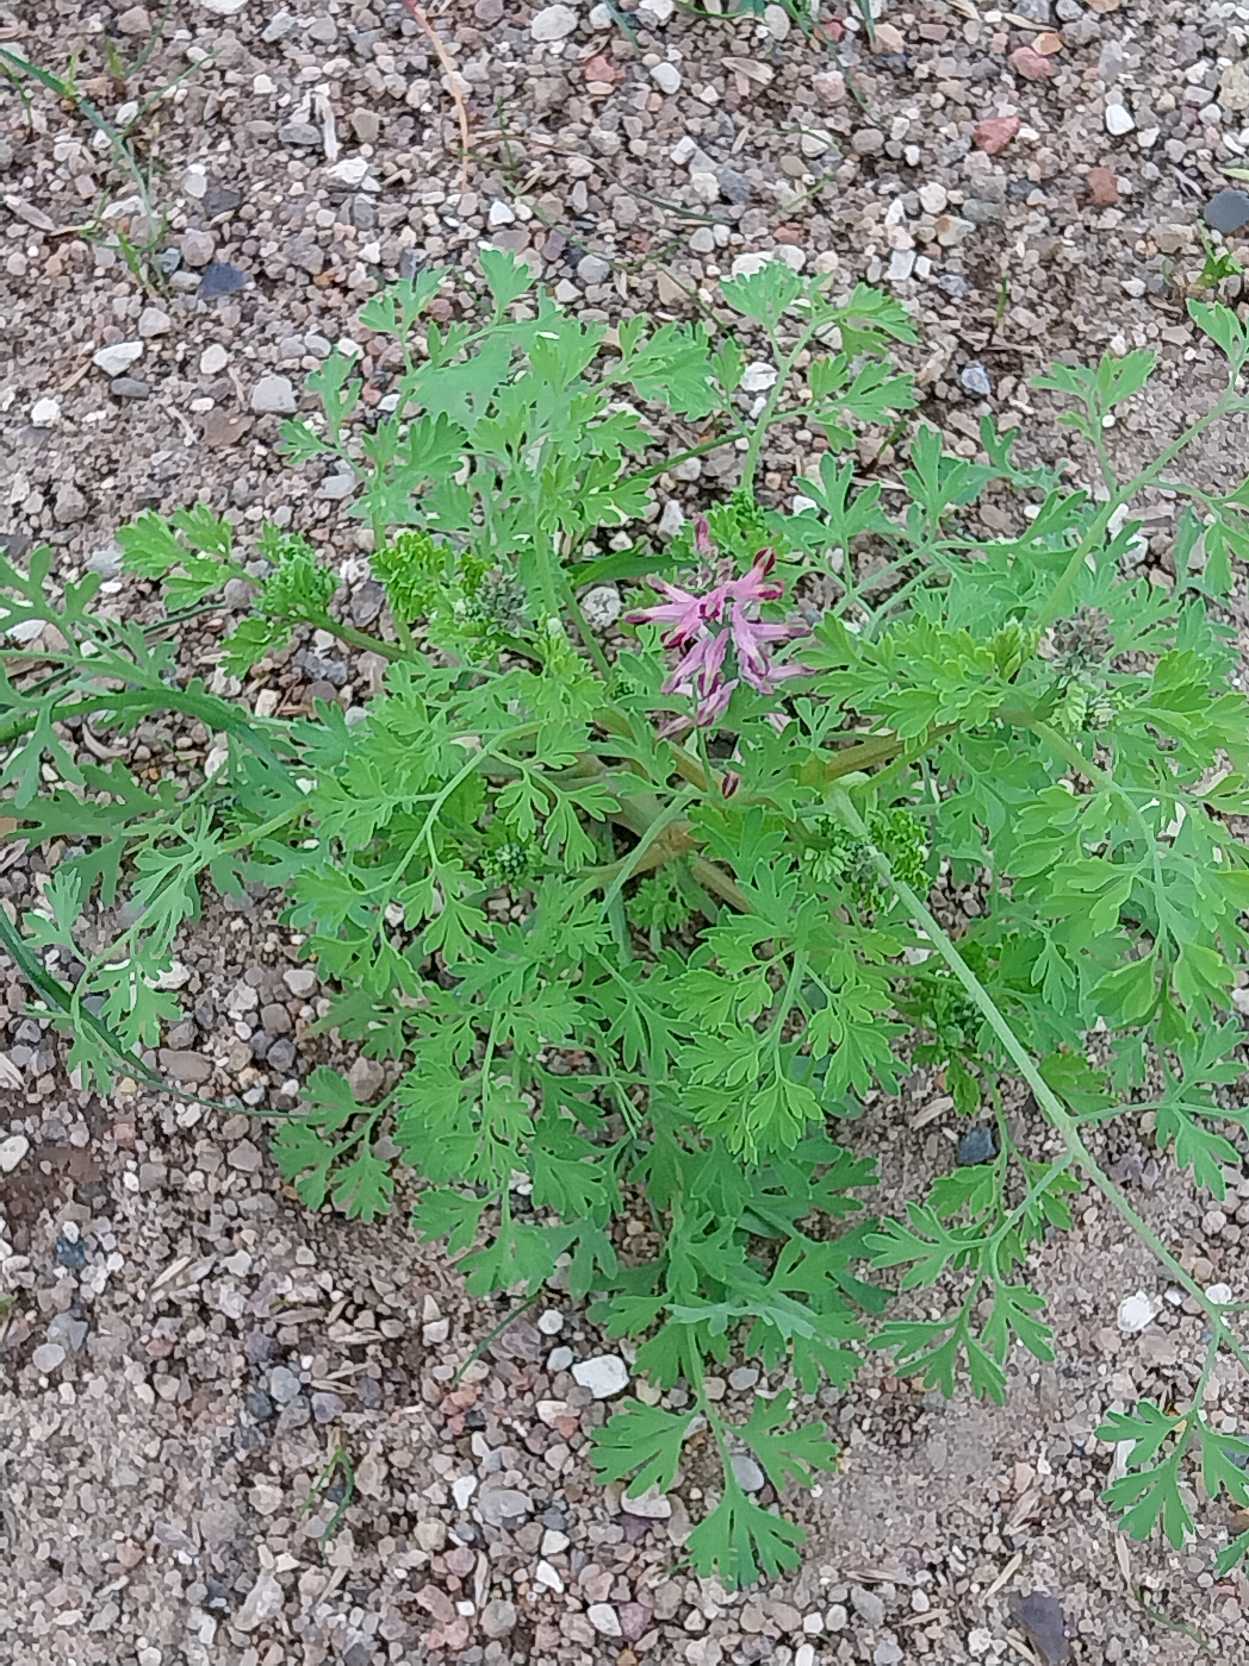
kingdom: Plantae
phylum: Tracheophyta
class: Magnoliopsida
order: Ranunculales
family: Papaveraceae
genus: Fumaria
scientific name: Fumaria officinalis
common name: Læge-jordrøg
